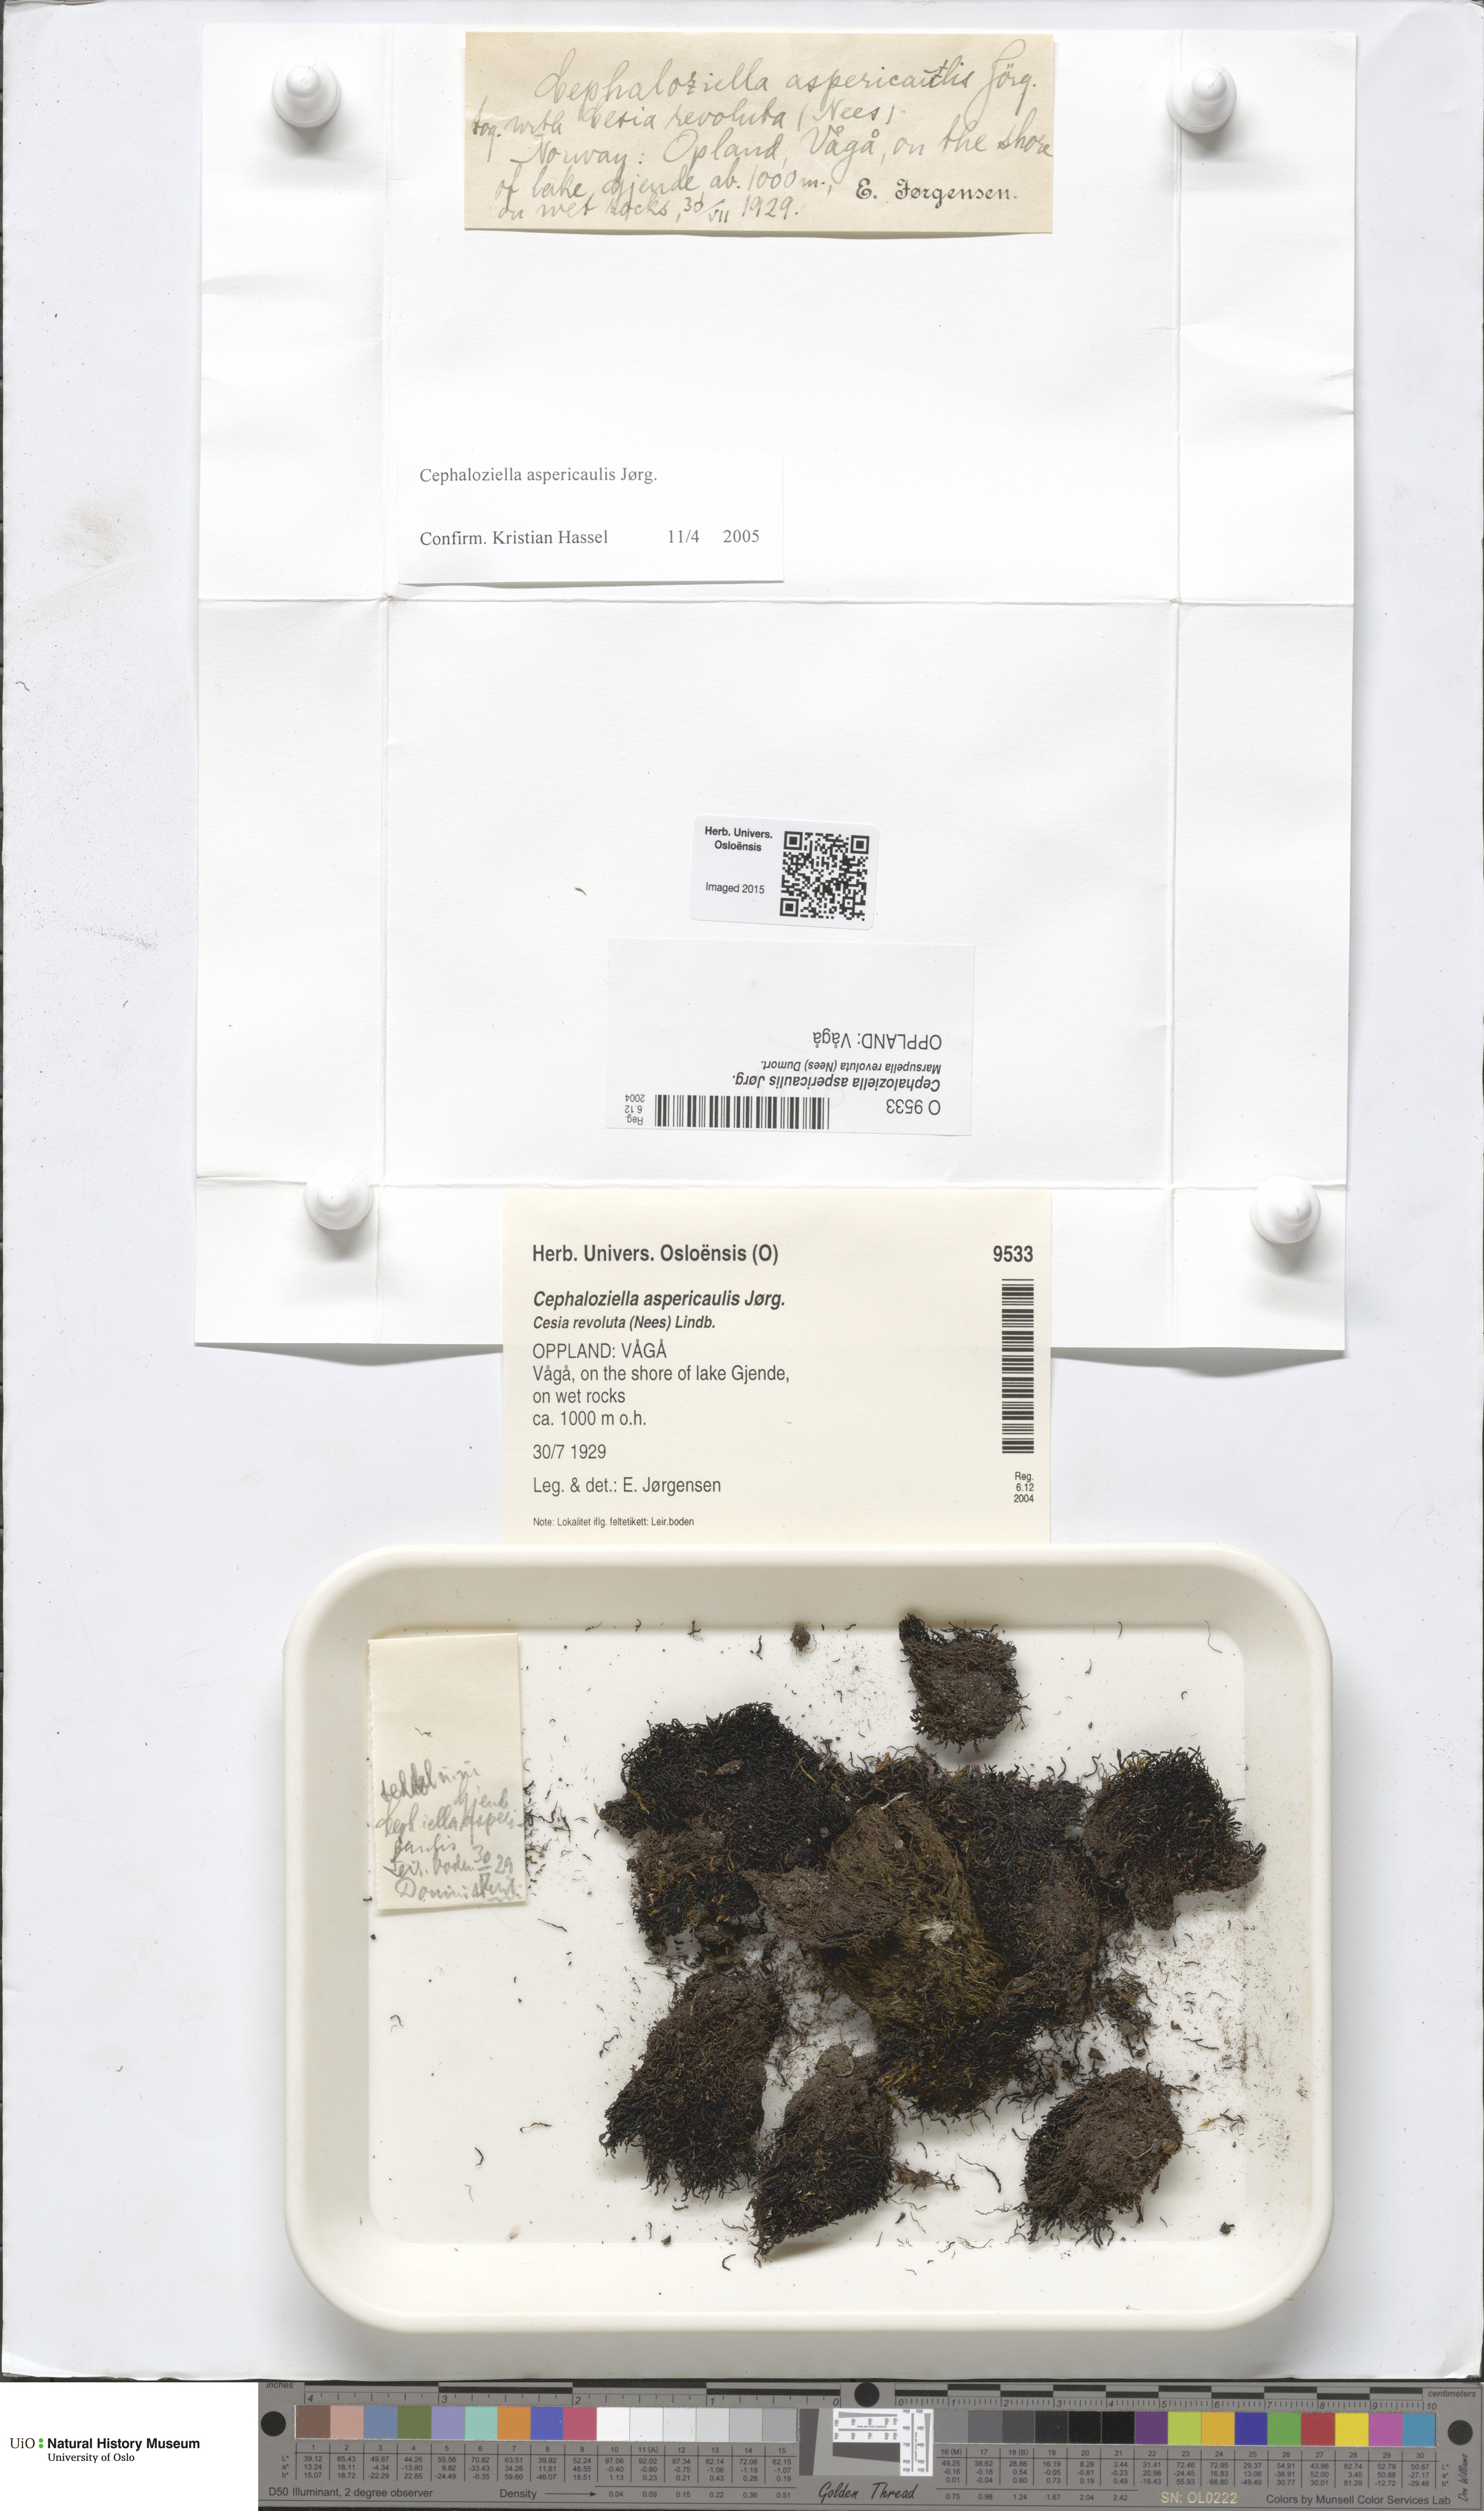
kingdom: Plantae
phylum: Marchantiophyta
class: Jungermanniopsida
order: Jungermanniales
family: Cephaloziellaceae
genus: Cephaloziella
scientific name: Cephaloziella aspericaulis
